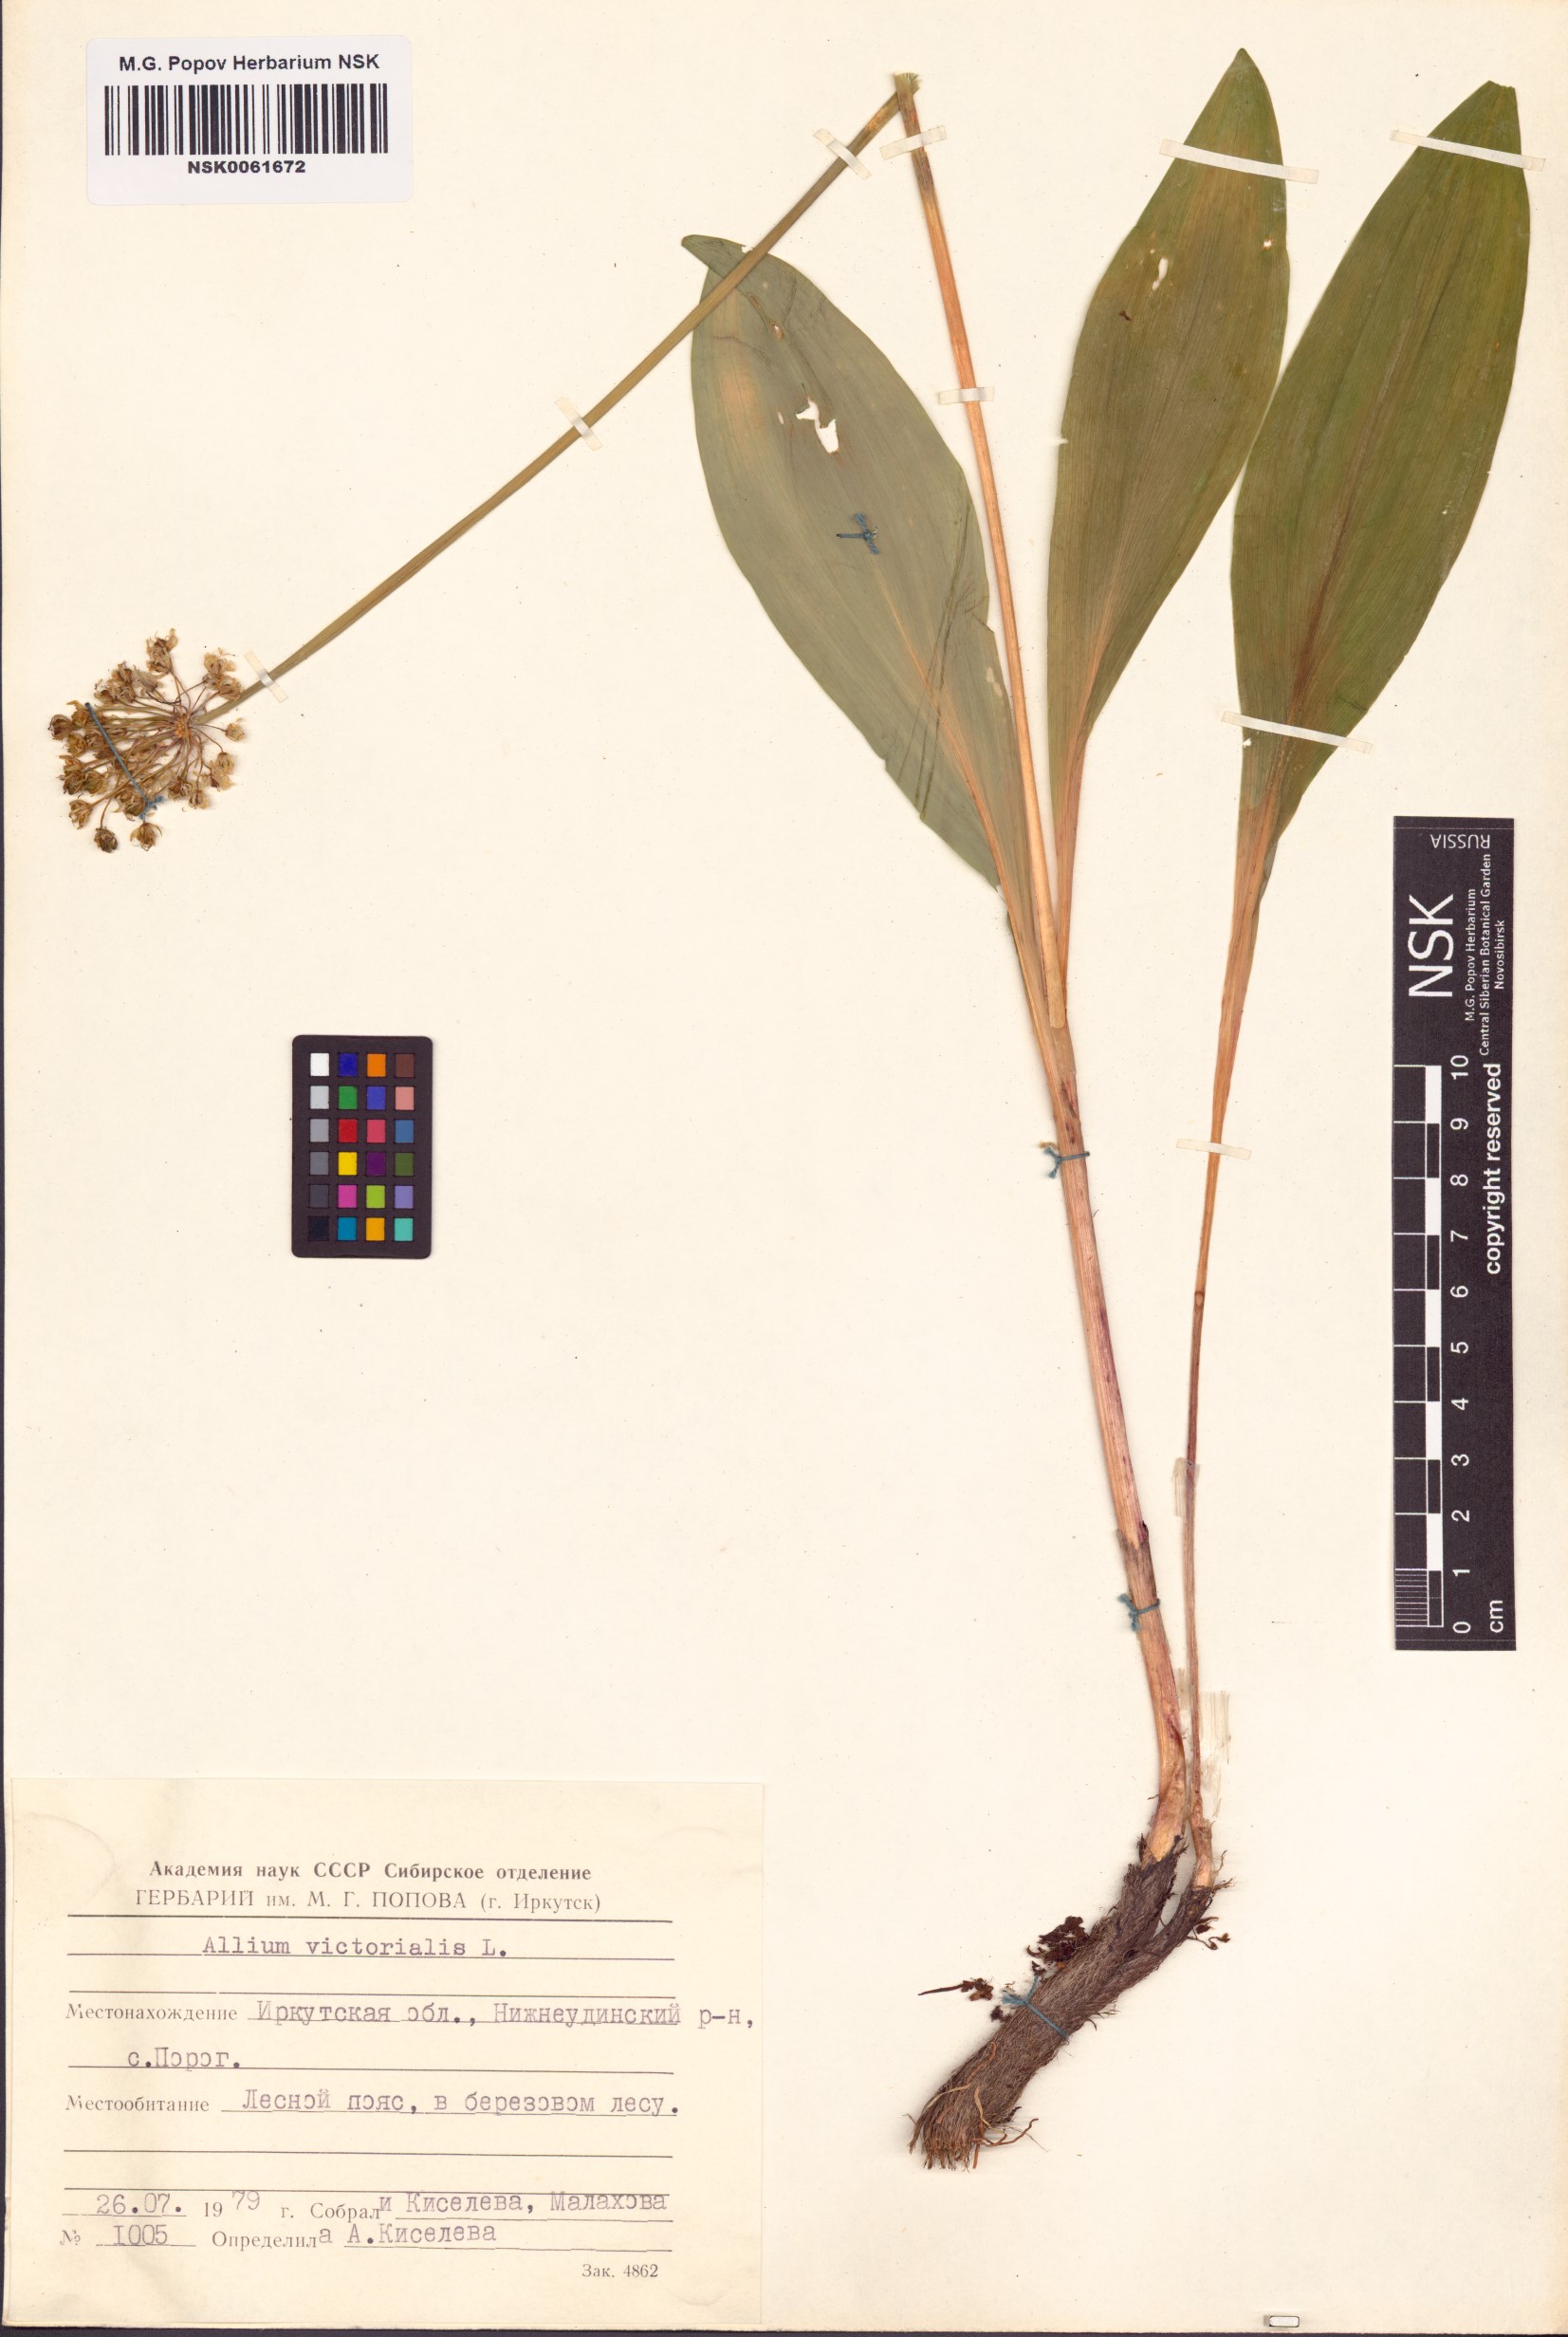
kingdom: Plantae
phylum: Tracheophyta
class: Liliopsida
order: Asparagales
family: Amaryllidaceae
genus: Allium
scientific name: Allium victorialis
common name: Alpine leek
